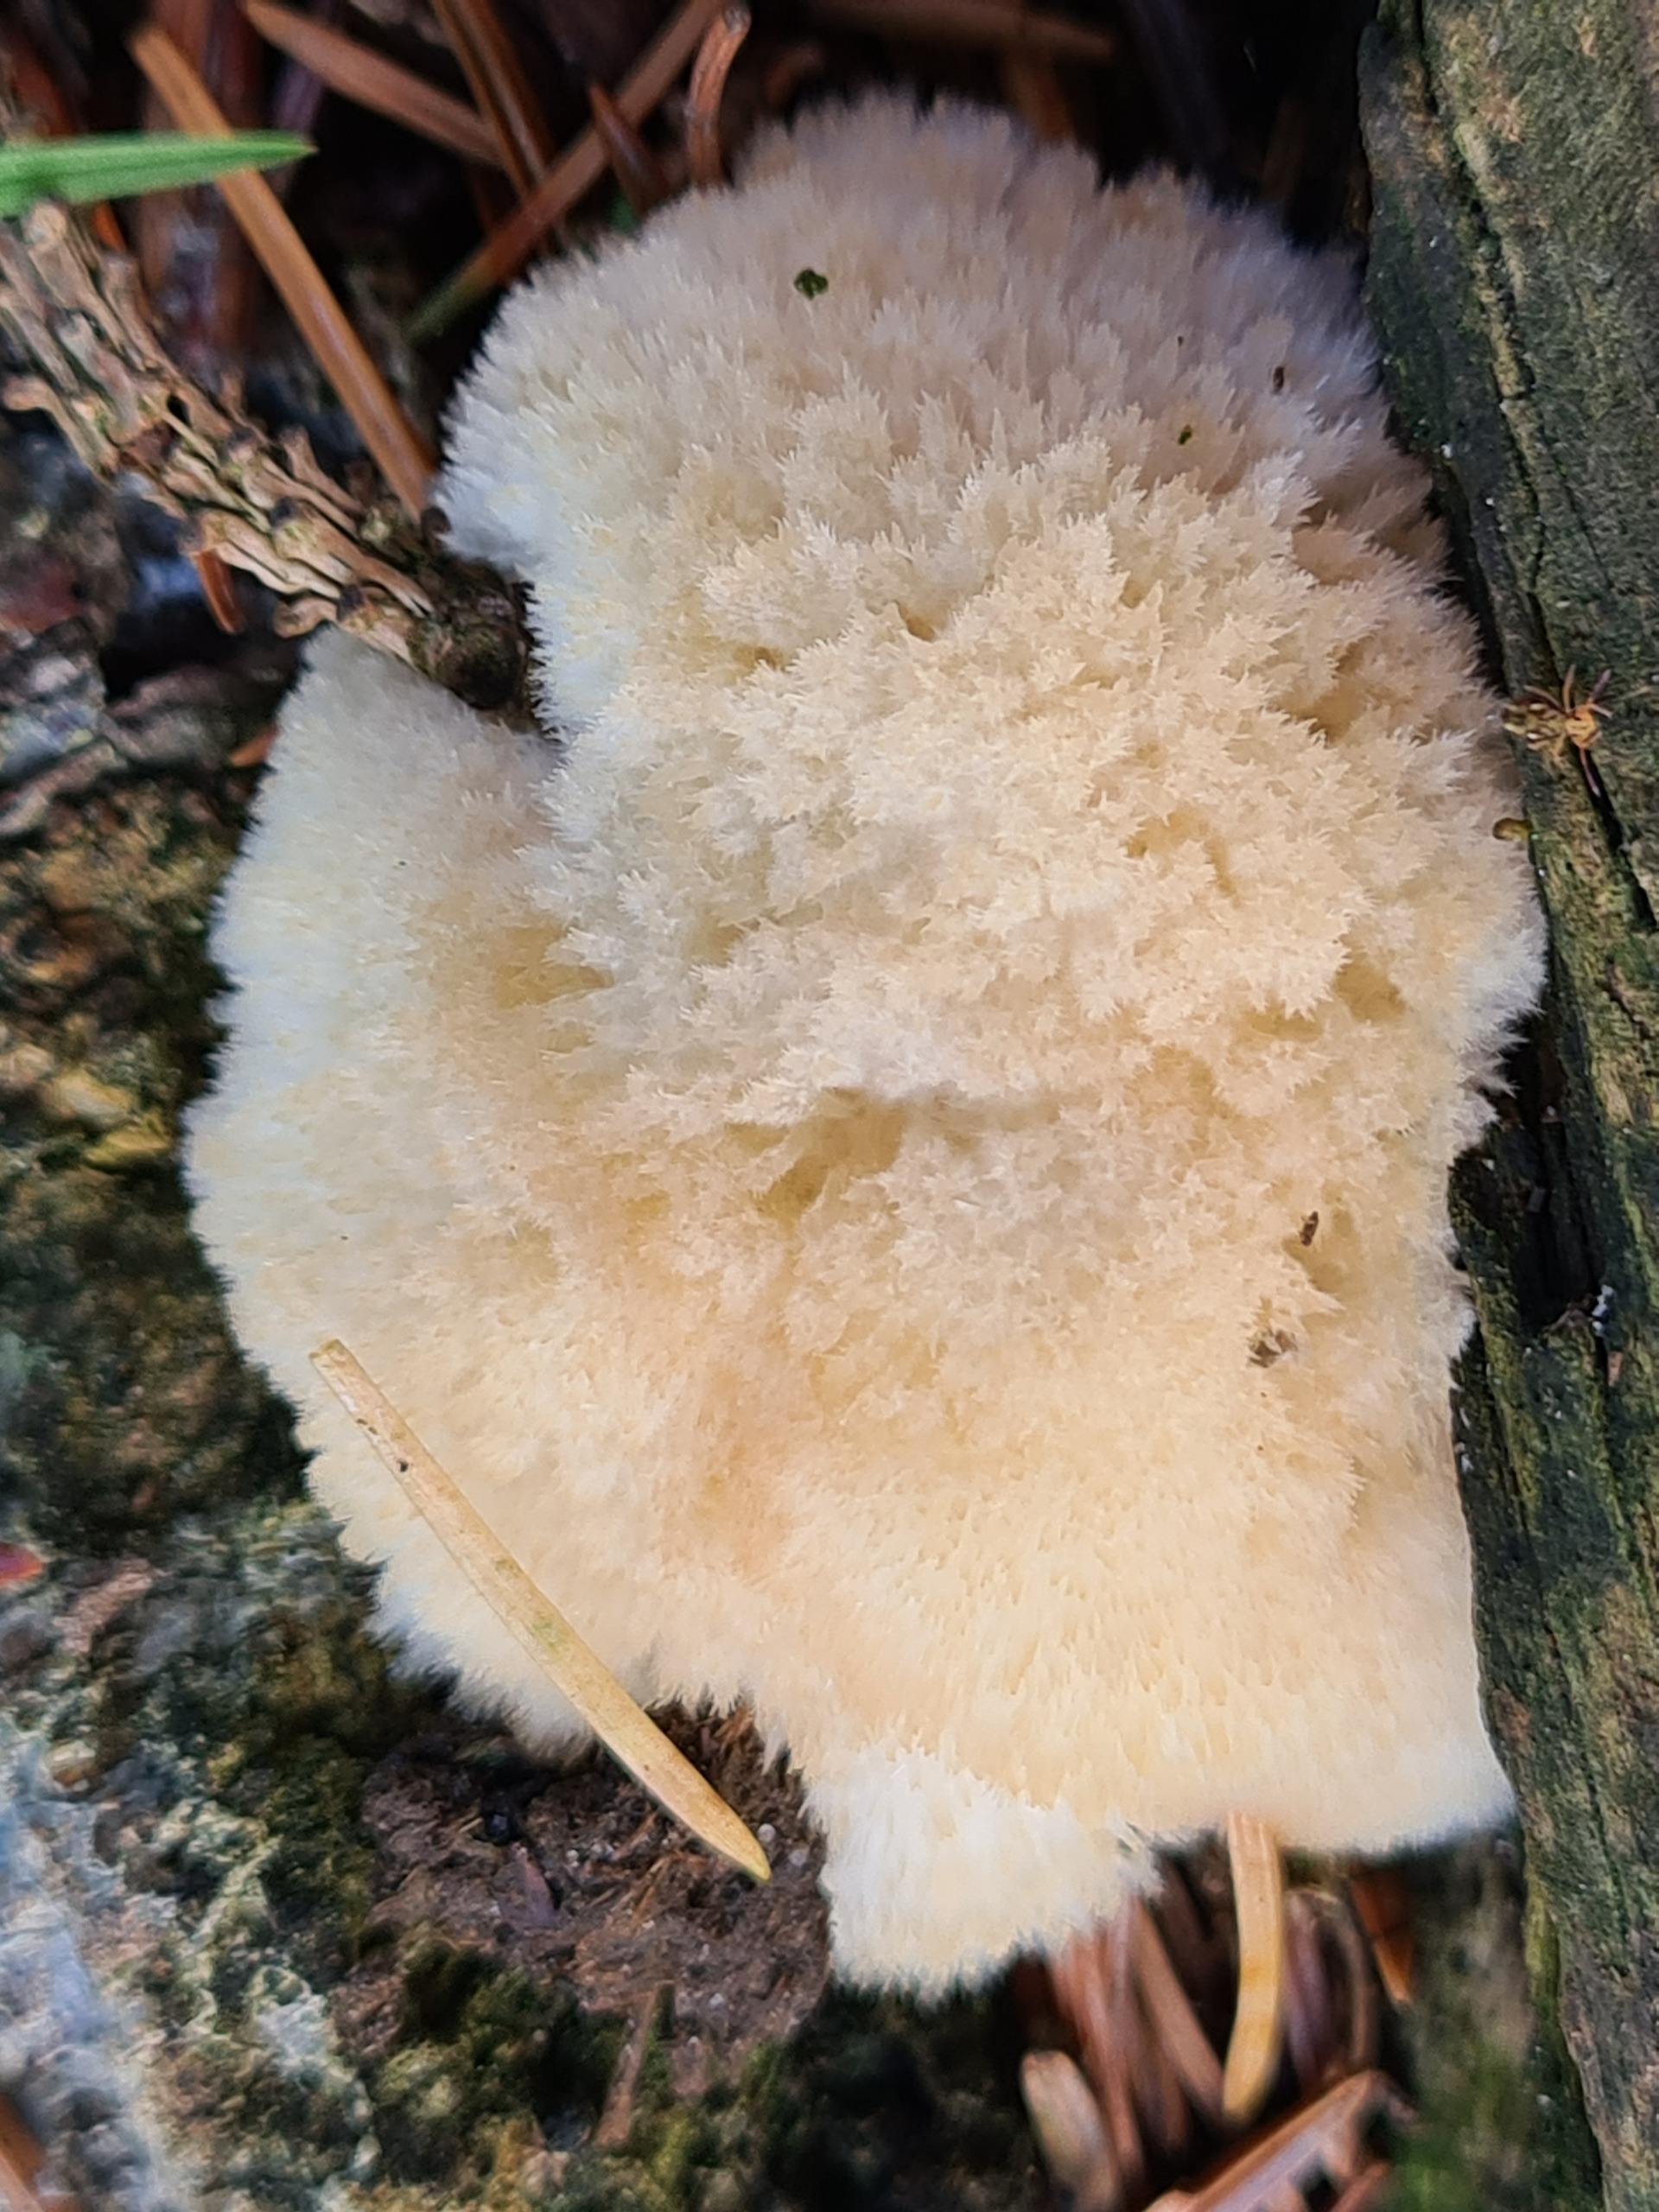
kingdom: Fungi
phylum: Basidiomycota
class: Agaricomycetes
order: Polyporales
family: Dacryobolaceae
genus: Postia
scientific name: Postia ptychogaster
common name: Støvende kødporesvamp
